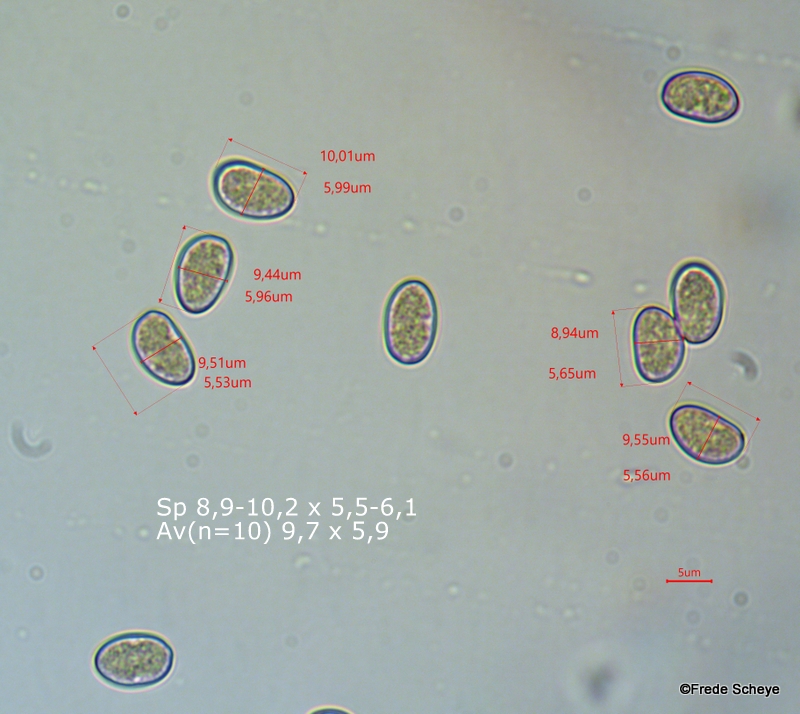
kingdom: Fungi
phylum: Basidiomycota
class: Agaricomycetes
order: Agaricales
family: Inocybaceae
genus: Pseudosperma
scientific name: Pseudosperma perlatum
